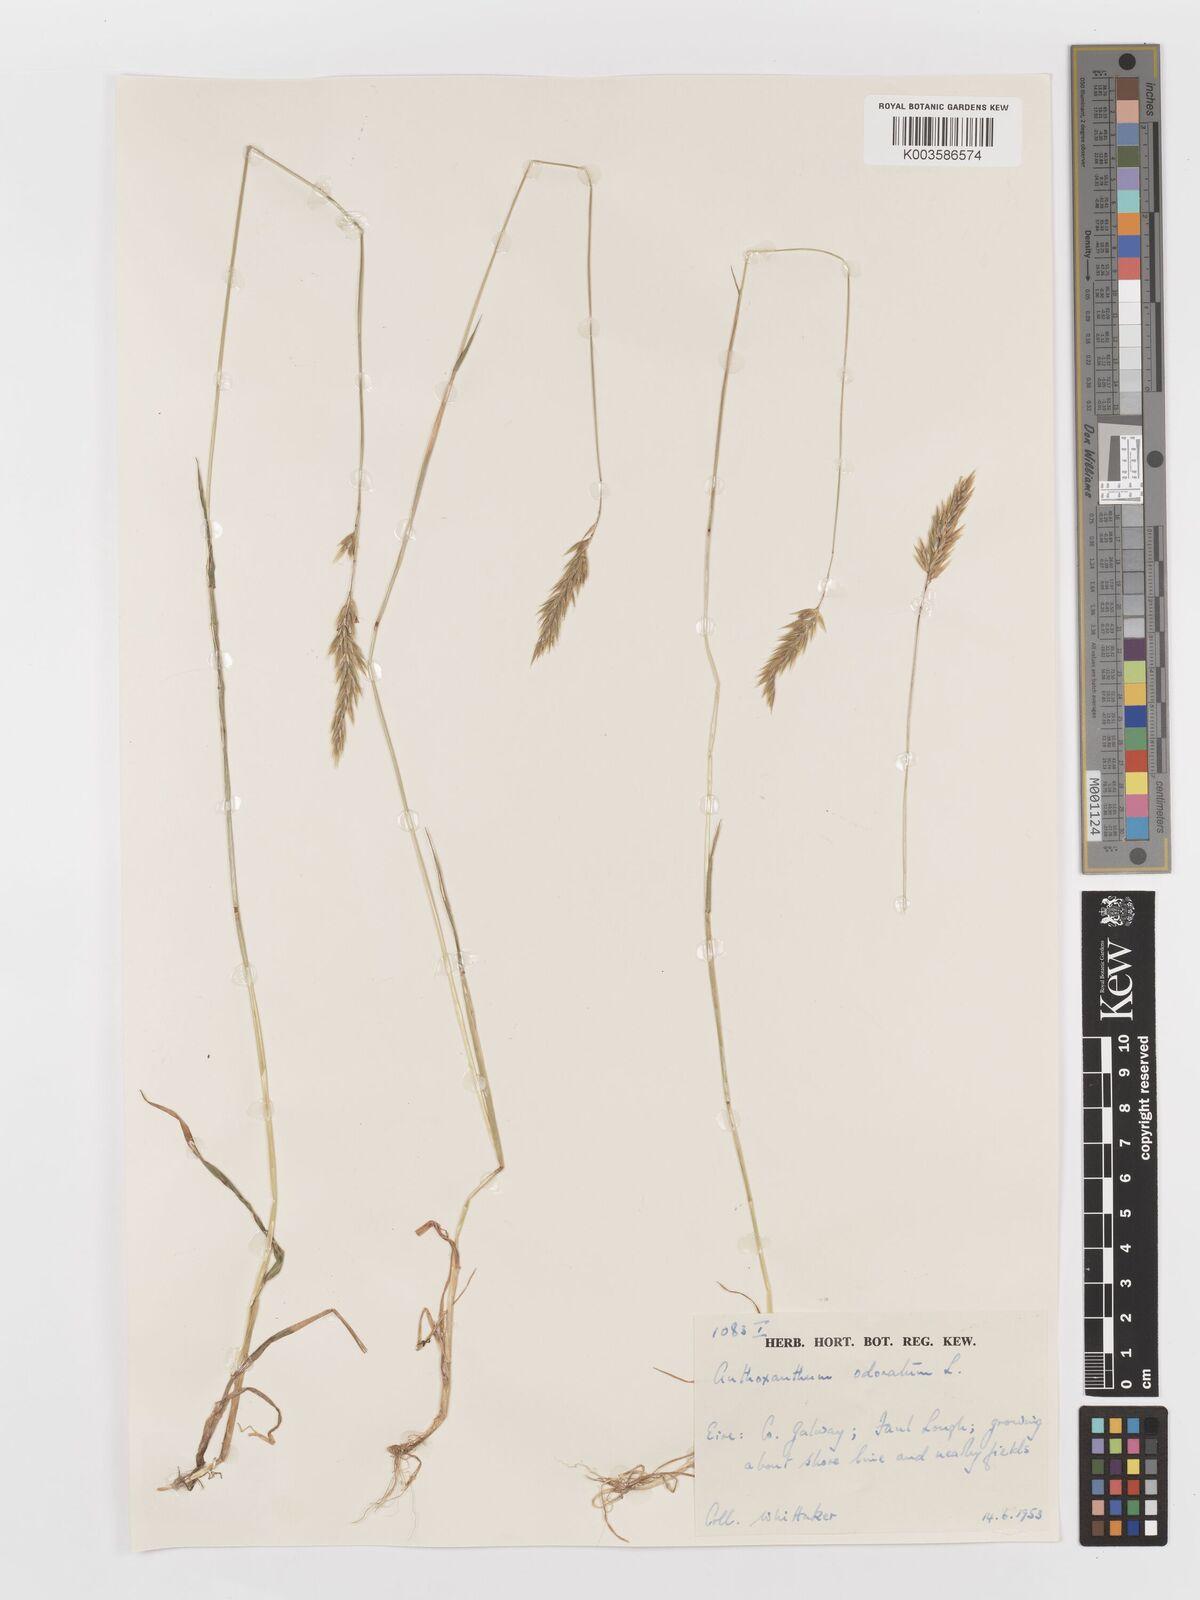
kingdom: Plantae
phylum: Tracheophyta
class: Liliopsida
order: Poales
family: Poaceae
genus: Anthoxanthum
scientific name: Anthoxanthum odoratum
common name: Sweet vernalgrass
